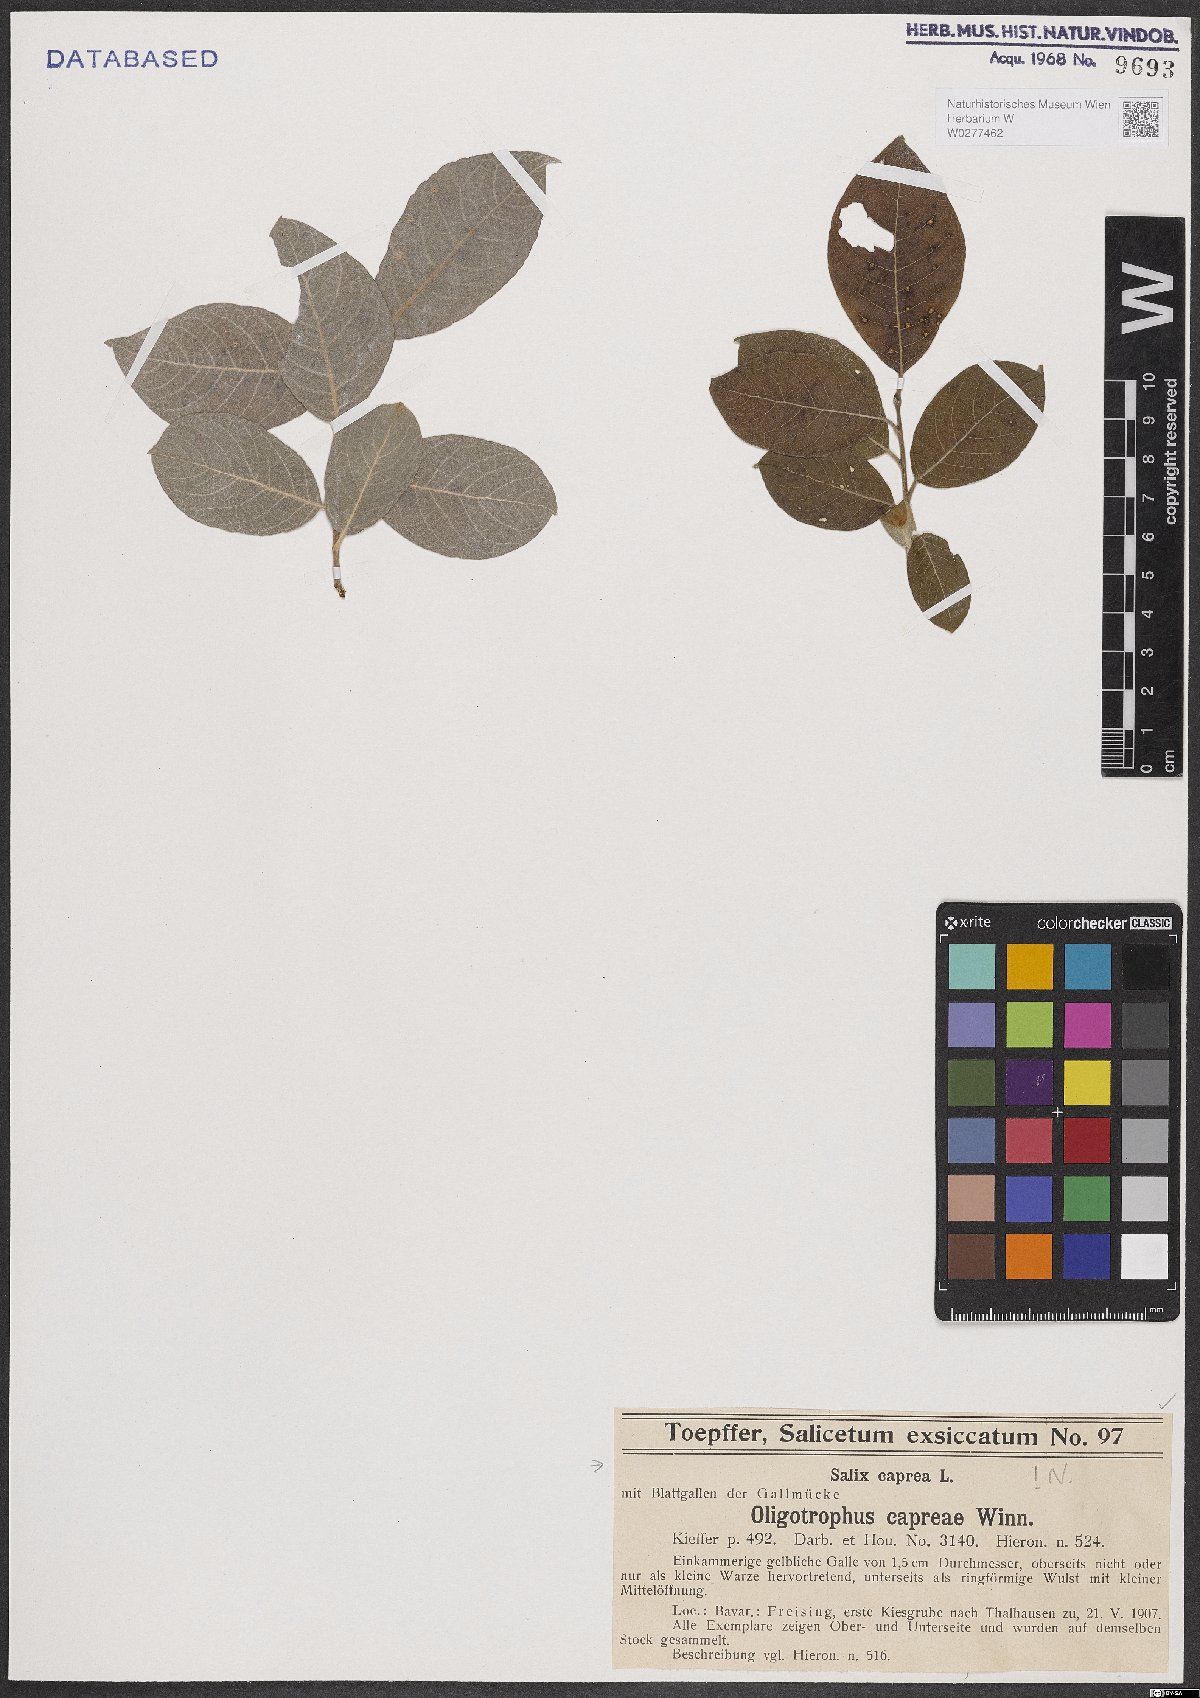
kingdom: Plantae
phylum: Tracheophyta
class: Magnoliopsida
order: Malpighiales
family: Salicaceae
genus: Salix
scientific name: Salix caprea
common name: Goat willow
